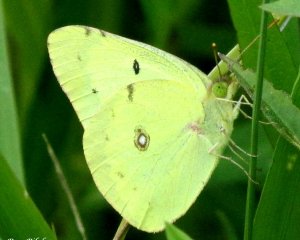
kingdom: Animalia
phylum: Arthropoda
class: Insecta
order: Lepidoptera
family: Pieridae
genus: Colias
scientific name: Colias philodice
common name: Clouded Sulphur
